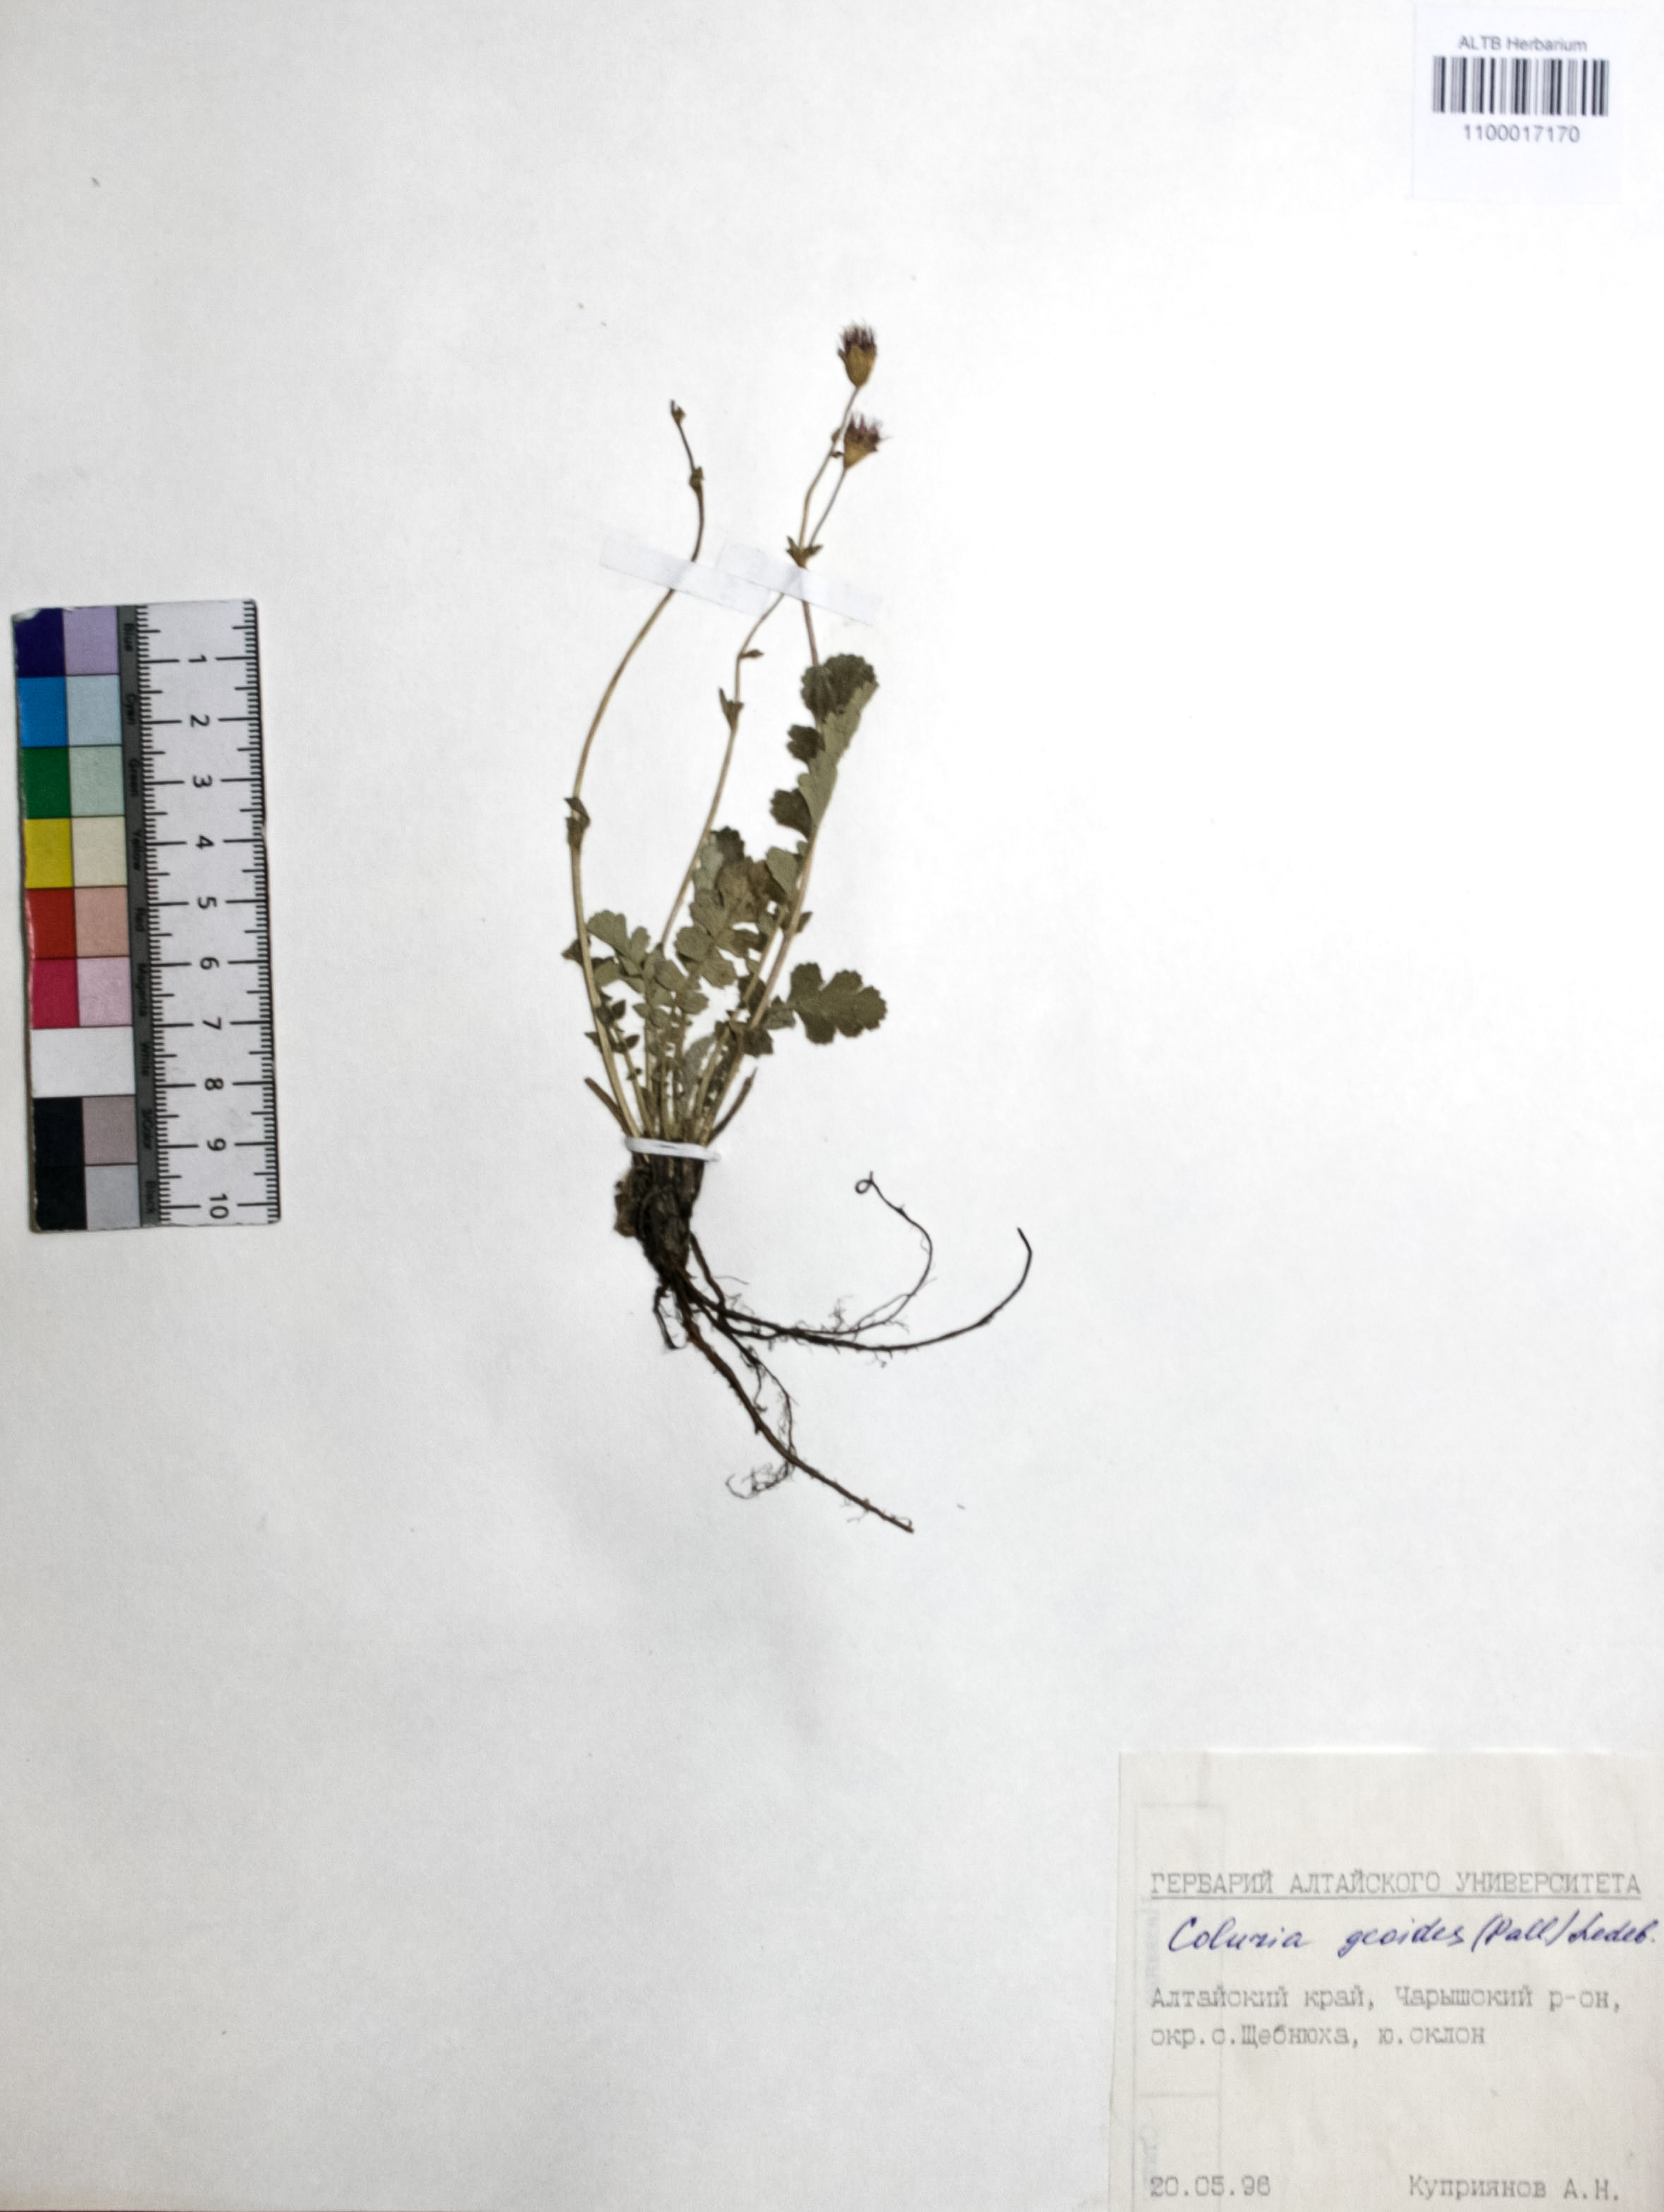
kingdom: Plantae
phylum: Tracheophyta
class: Magnoliopsida
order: Rosales
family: Rosaceae
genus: Geum
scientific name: Geum geoides
